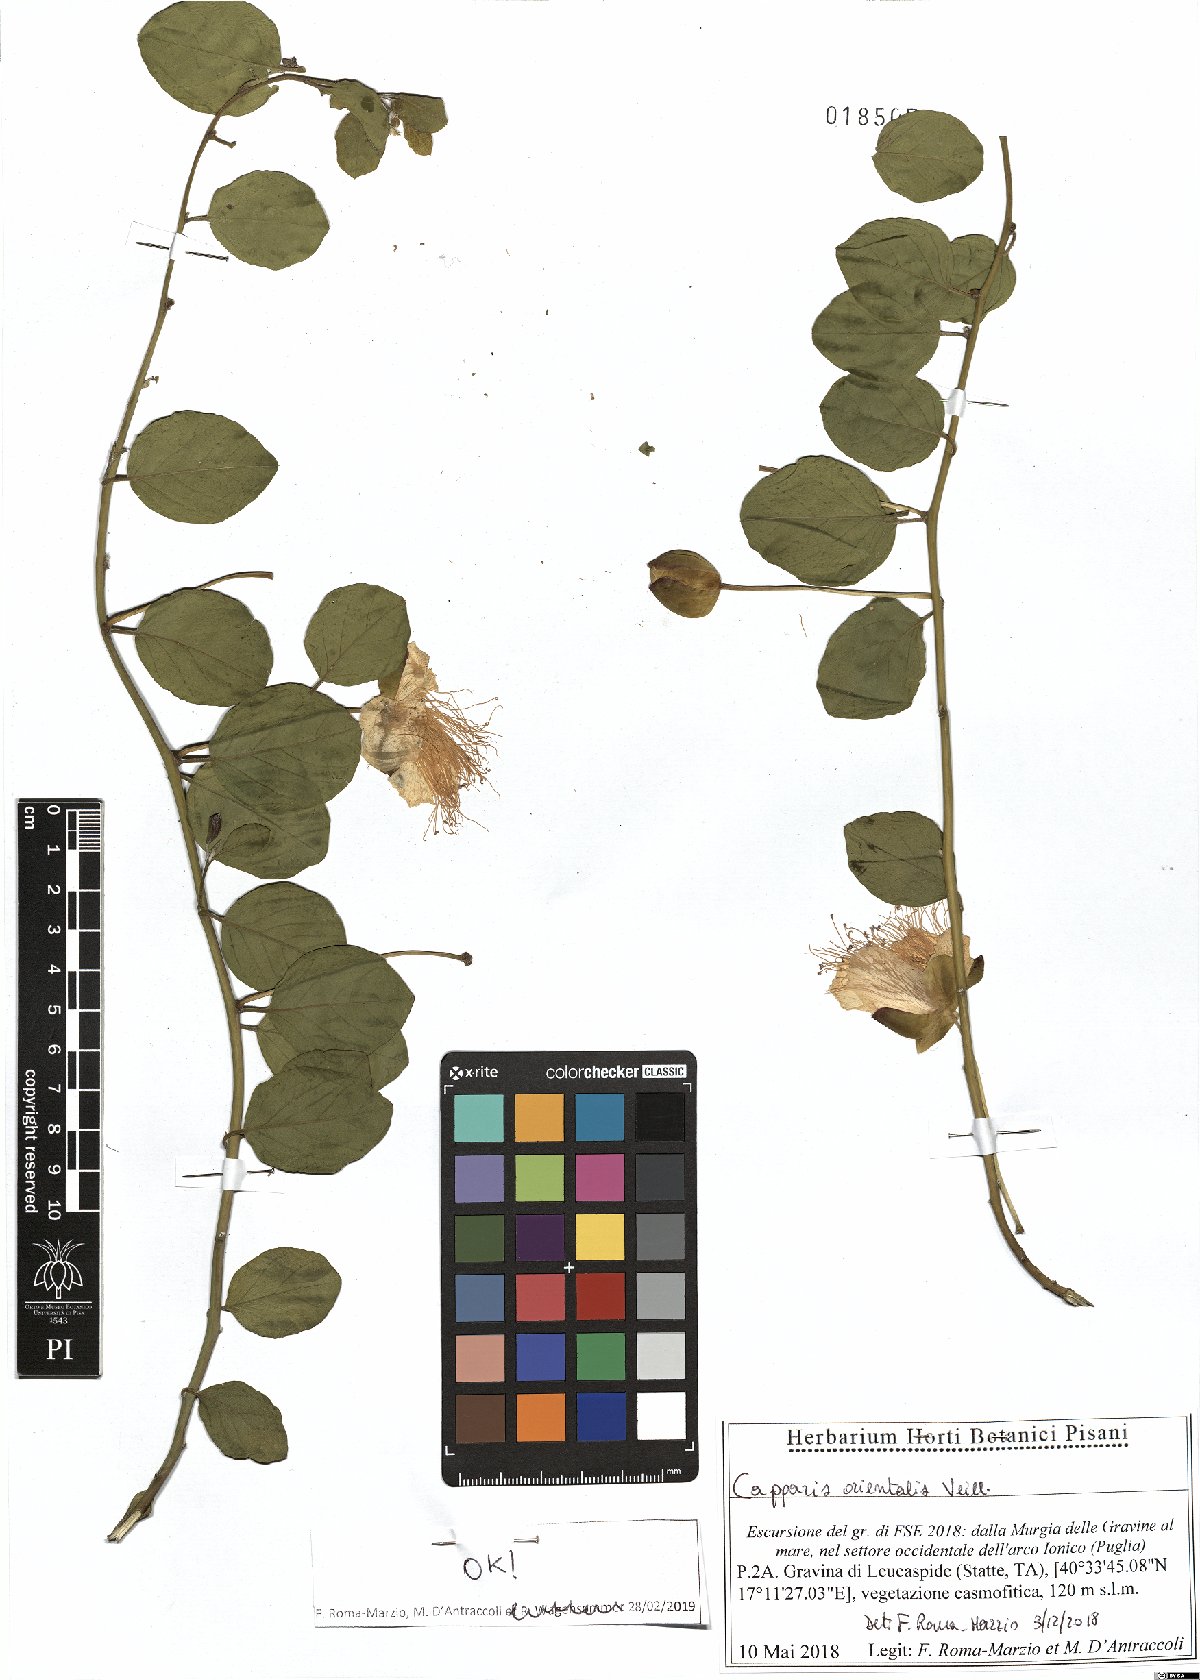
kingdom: Plantae
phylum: Tracheophyta
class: Magnoliopsida
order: Brassicales
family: Capparaceae
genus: Capparis
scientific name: Capparis spinosa
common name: Caper
